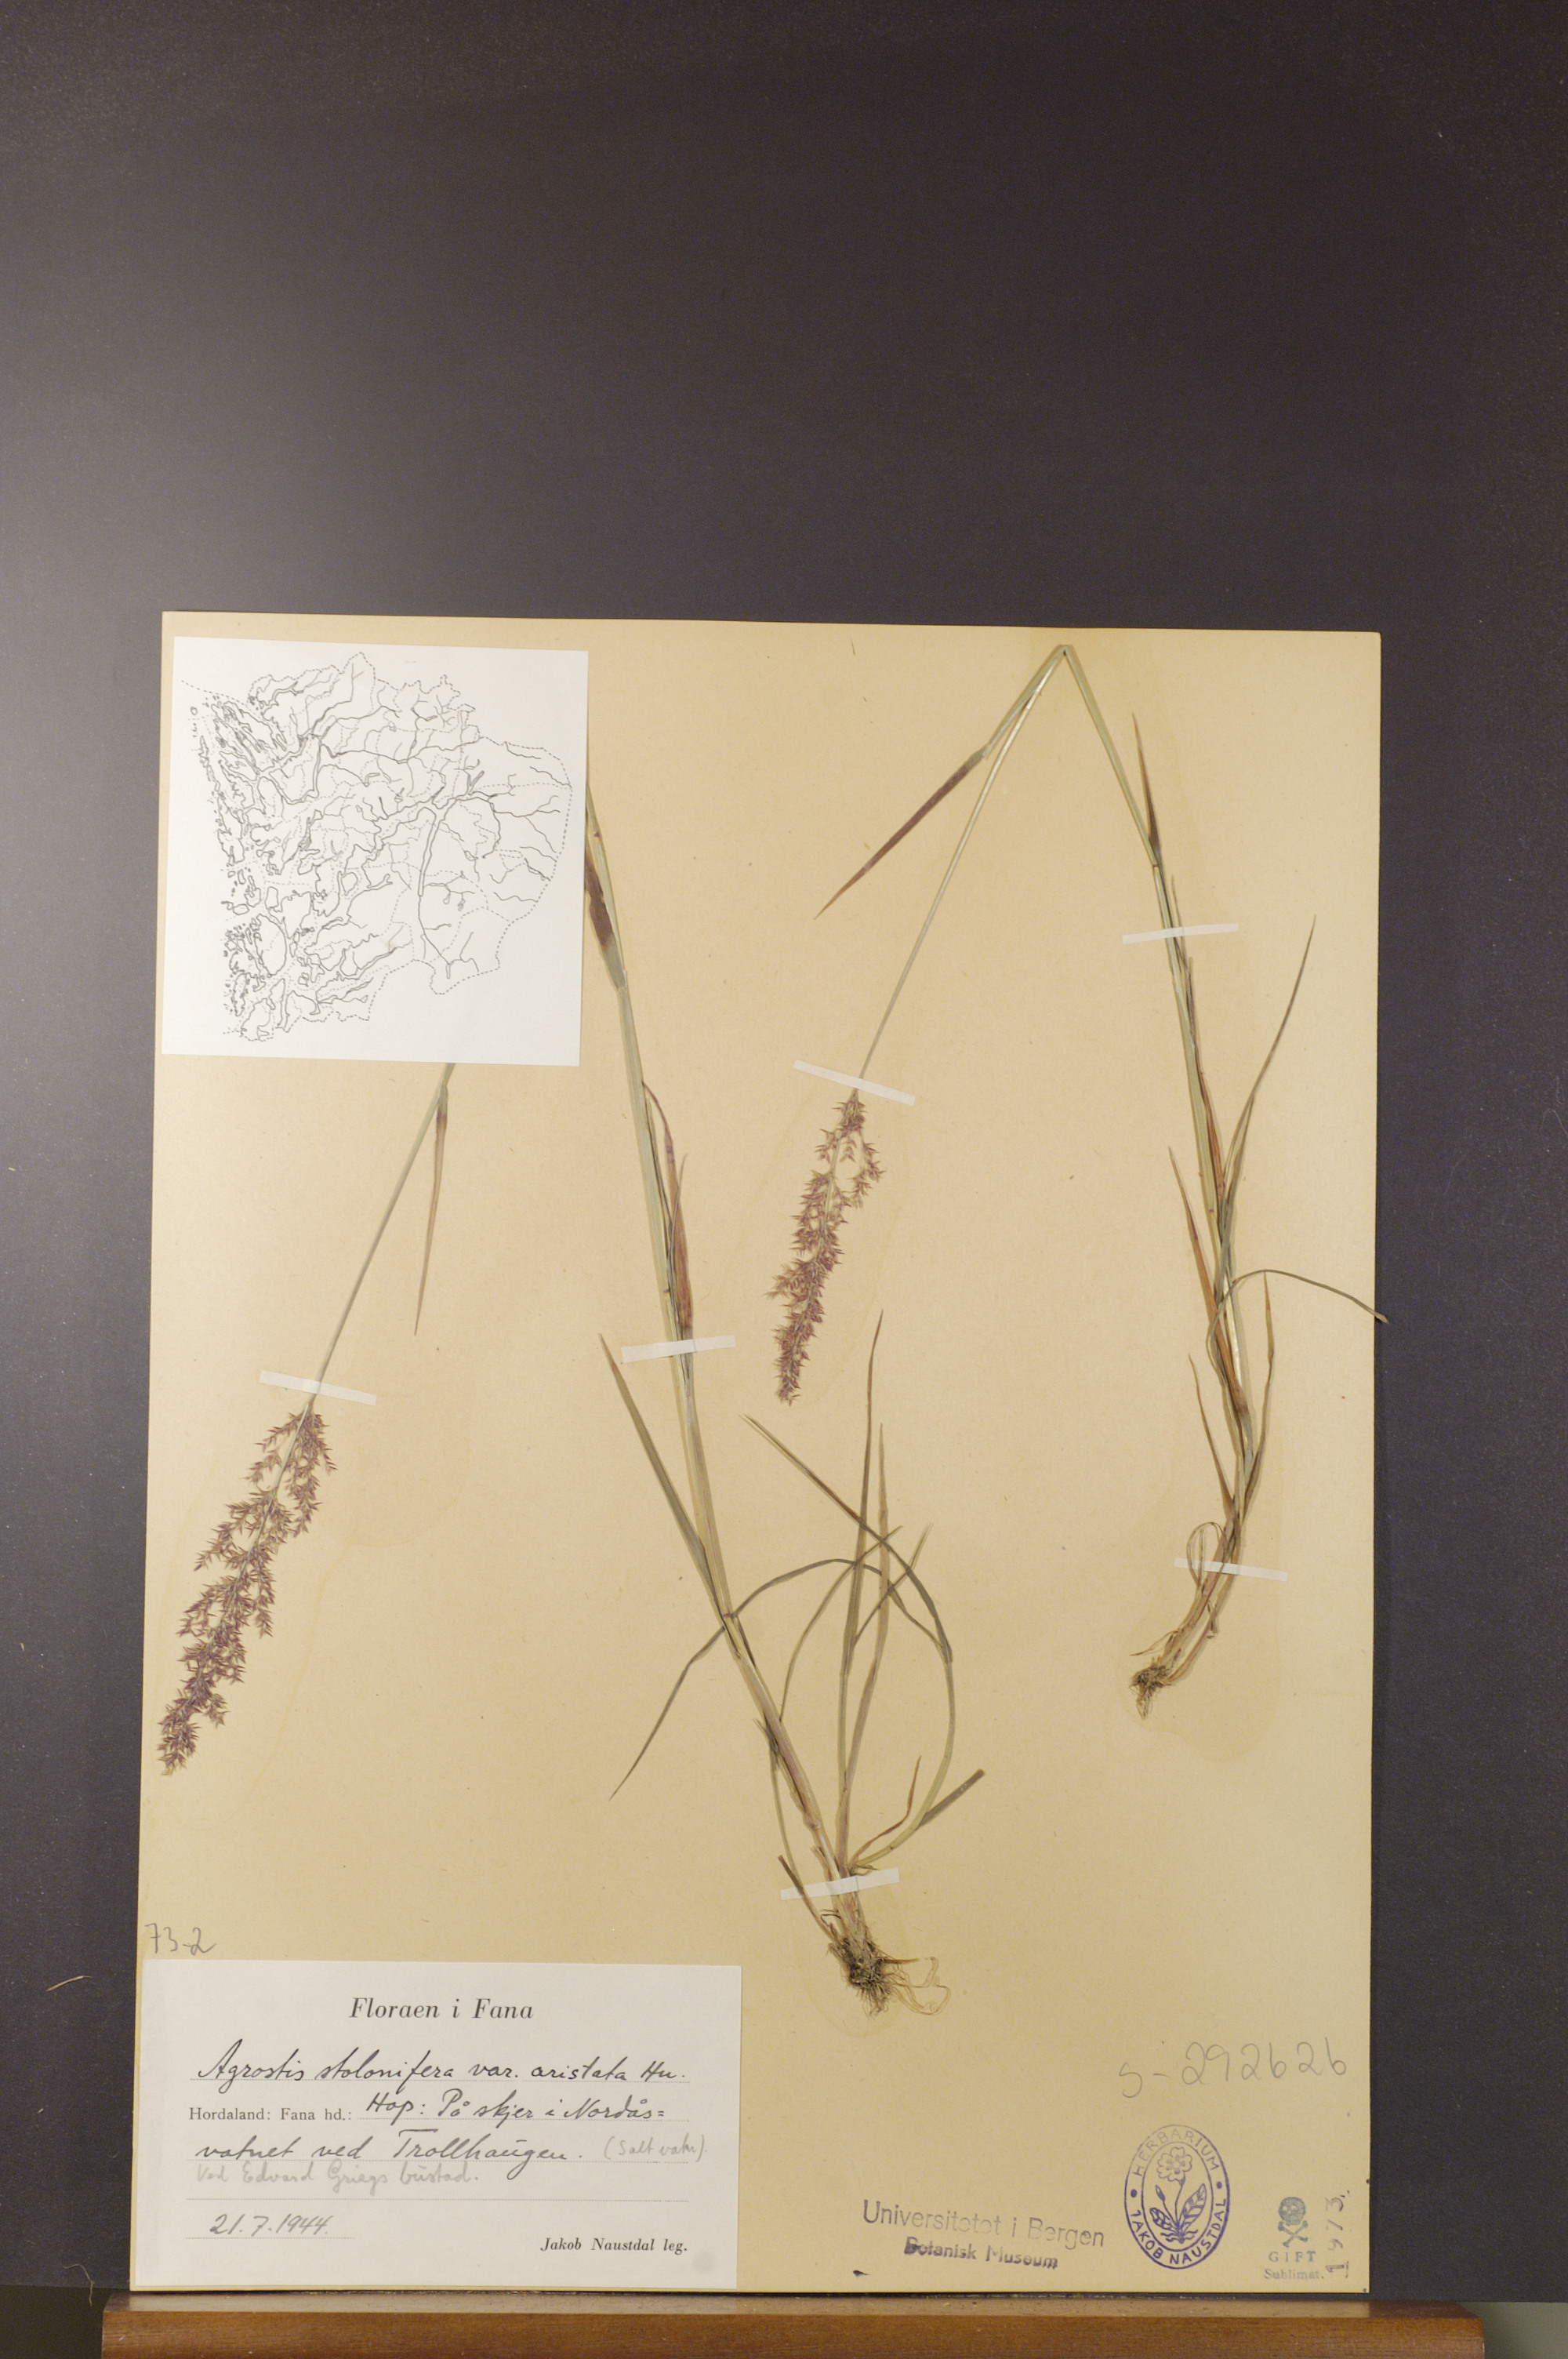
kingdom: Plantae
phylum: Tracheophyta
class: Liliopsida
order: Poales
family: Poaceae
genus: Agrostis
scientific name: Agrostis gigantea
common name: Black bent
